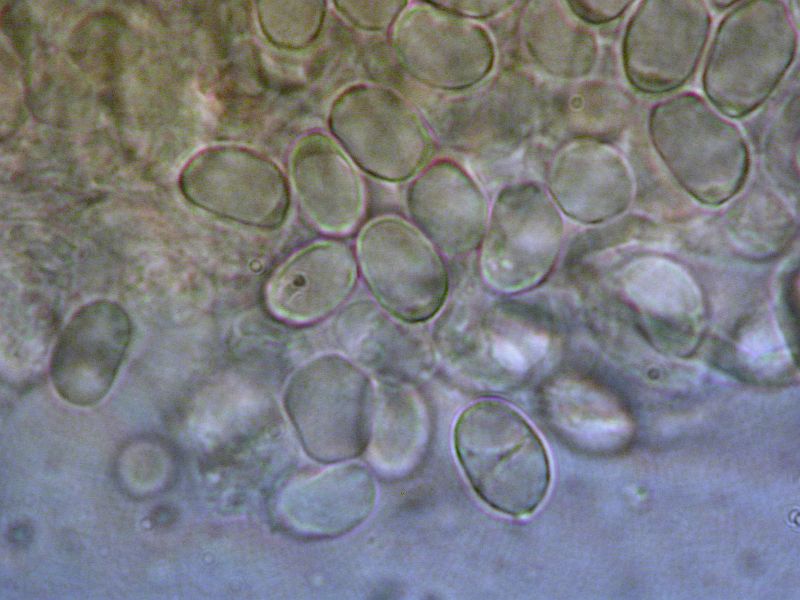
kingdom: Fungi
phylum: Basidiomycota
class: Agaricomycetes
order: Agaricales
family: Callistosporiaceae
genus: Pseudolaccaria
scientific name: Pseudolaccaria pachyphylla
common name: hvælvet tykblad
